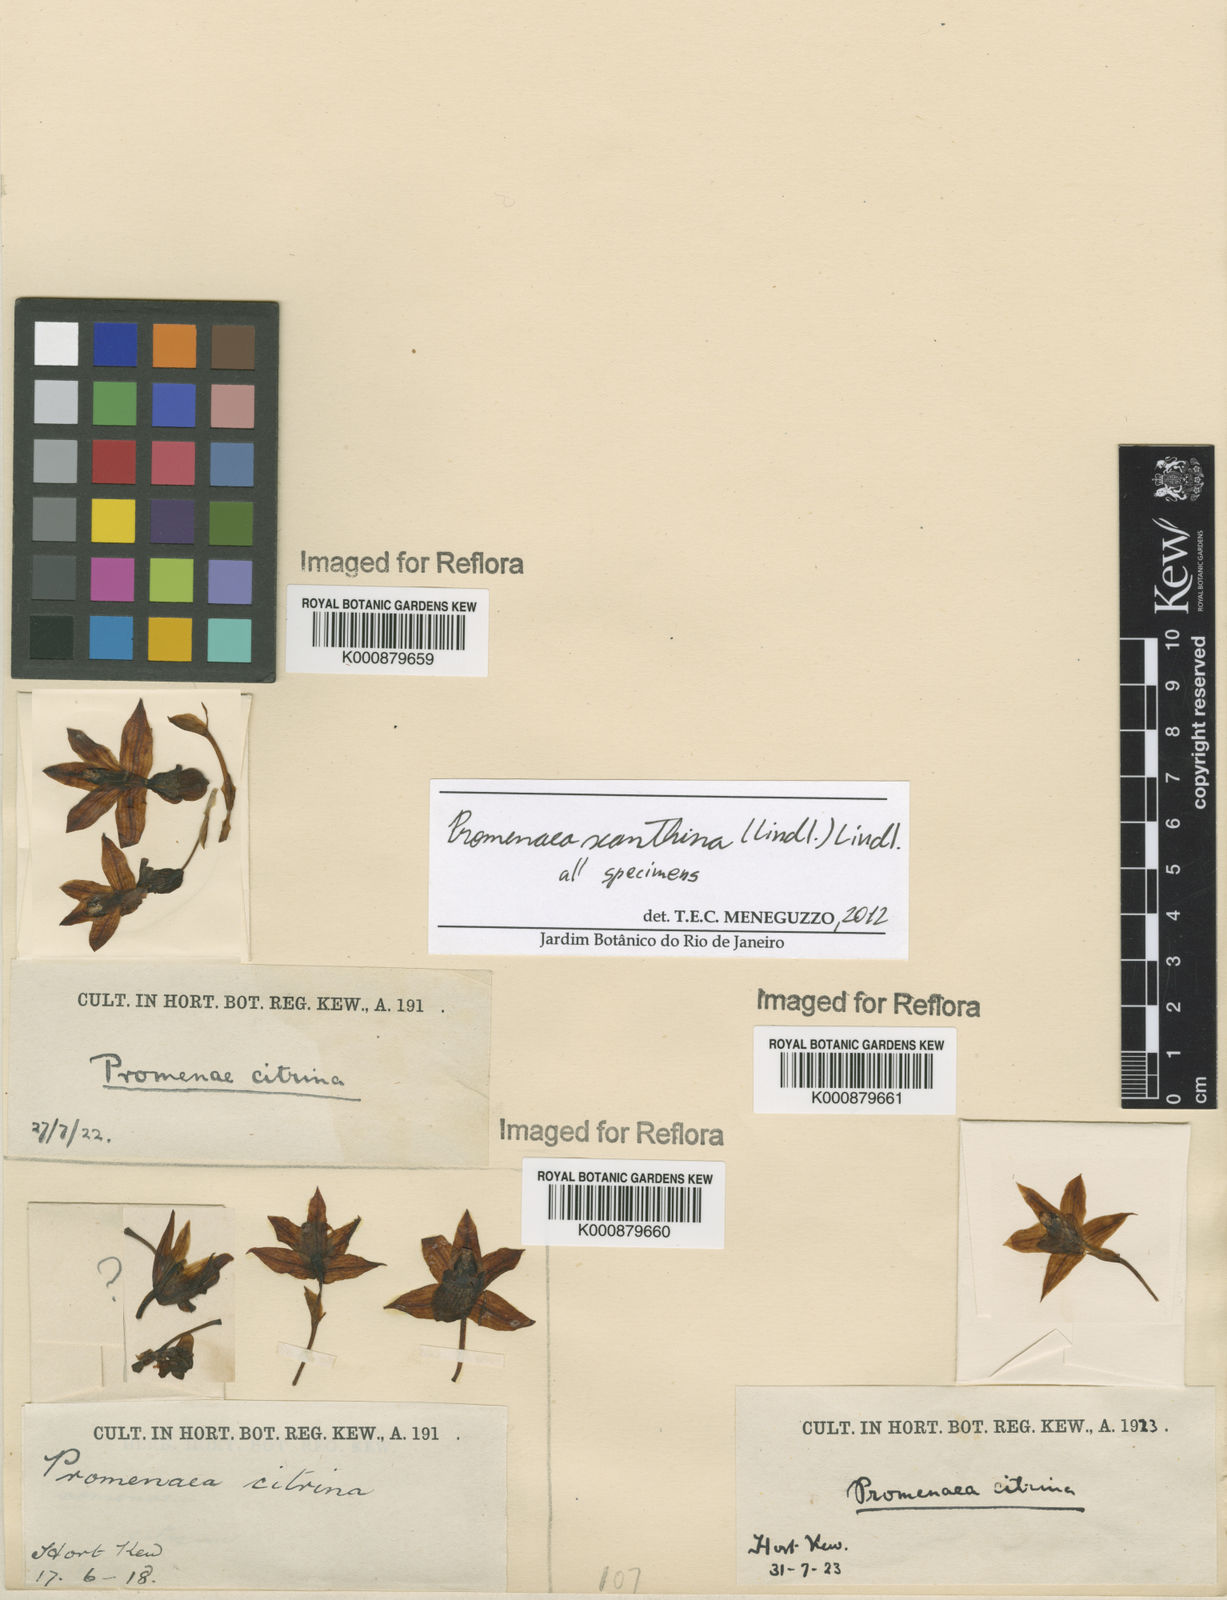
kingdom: Plantae
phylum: Tracheophyta
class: Liliopsida
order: Asparagales
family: Orchidaceae
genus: Promenaea
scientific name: Promenaea xanthina
